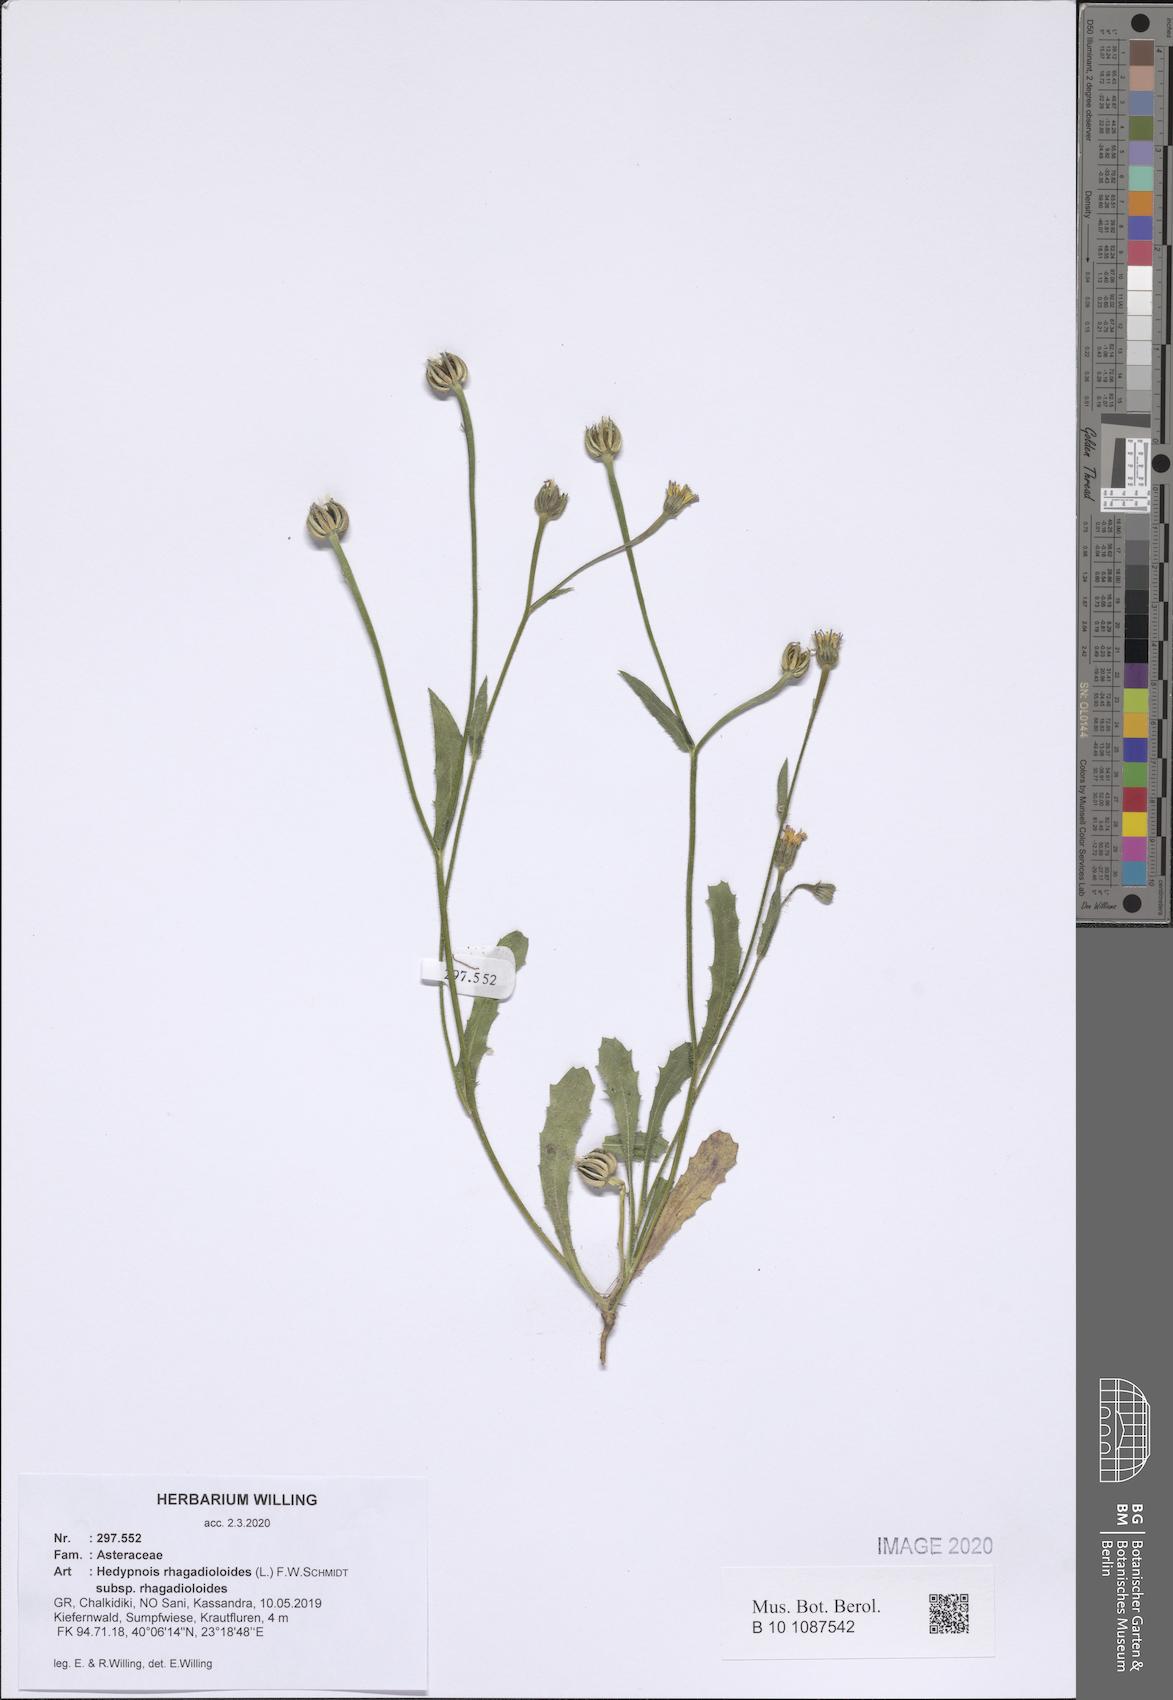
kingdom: Plantae
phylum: Tracheophyta
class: Magnoliopsida
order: Asterales
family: Asteraceae
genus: Hedypnois
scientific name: Hedypnois rhagadioloides
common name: Cretan weed
